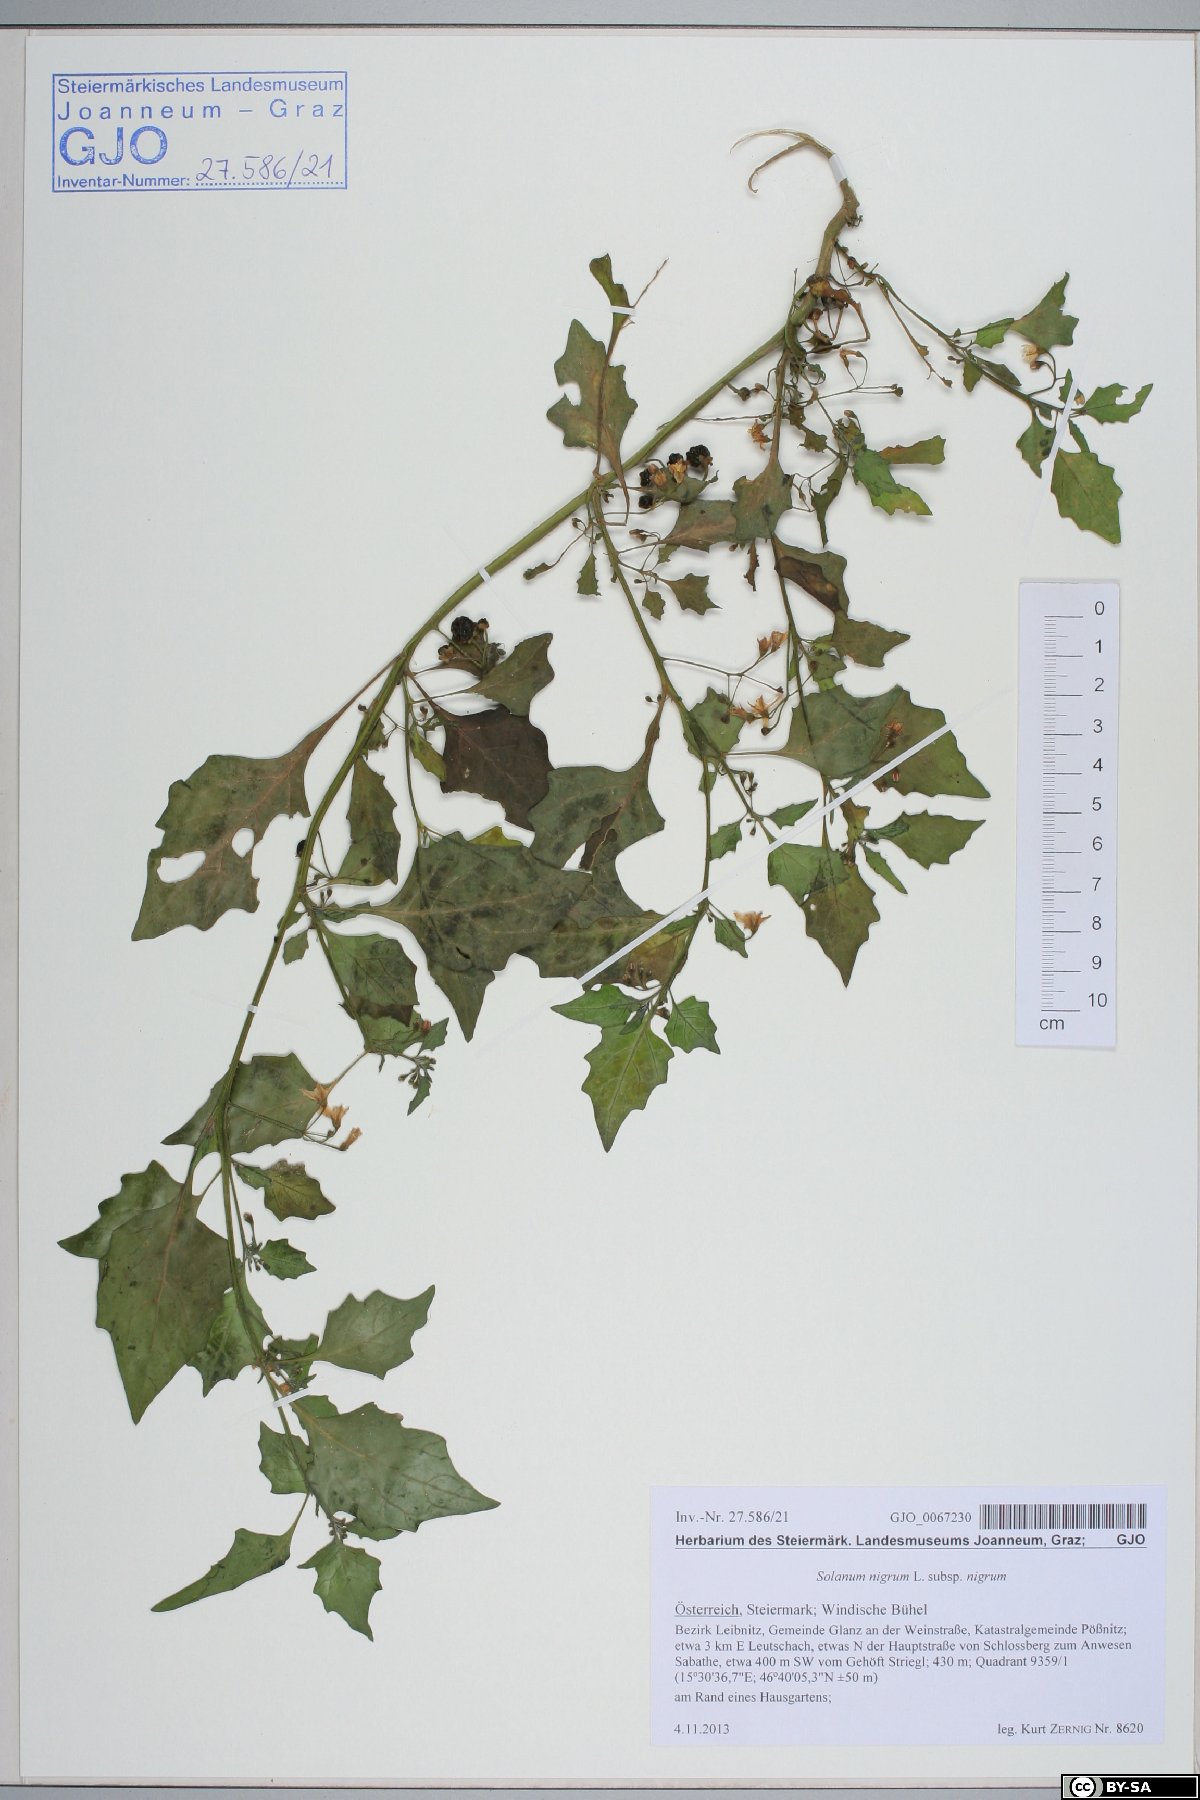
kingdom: Plantae
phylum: Tracheophyta
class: Magnoliopsida
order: Solanales
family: Solanaceae
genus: Solanum
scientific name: Solanum nigrum
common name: Black nightshade
